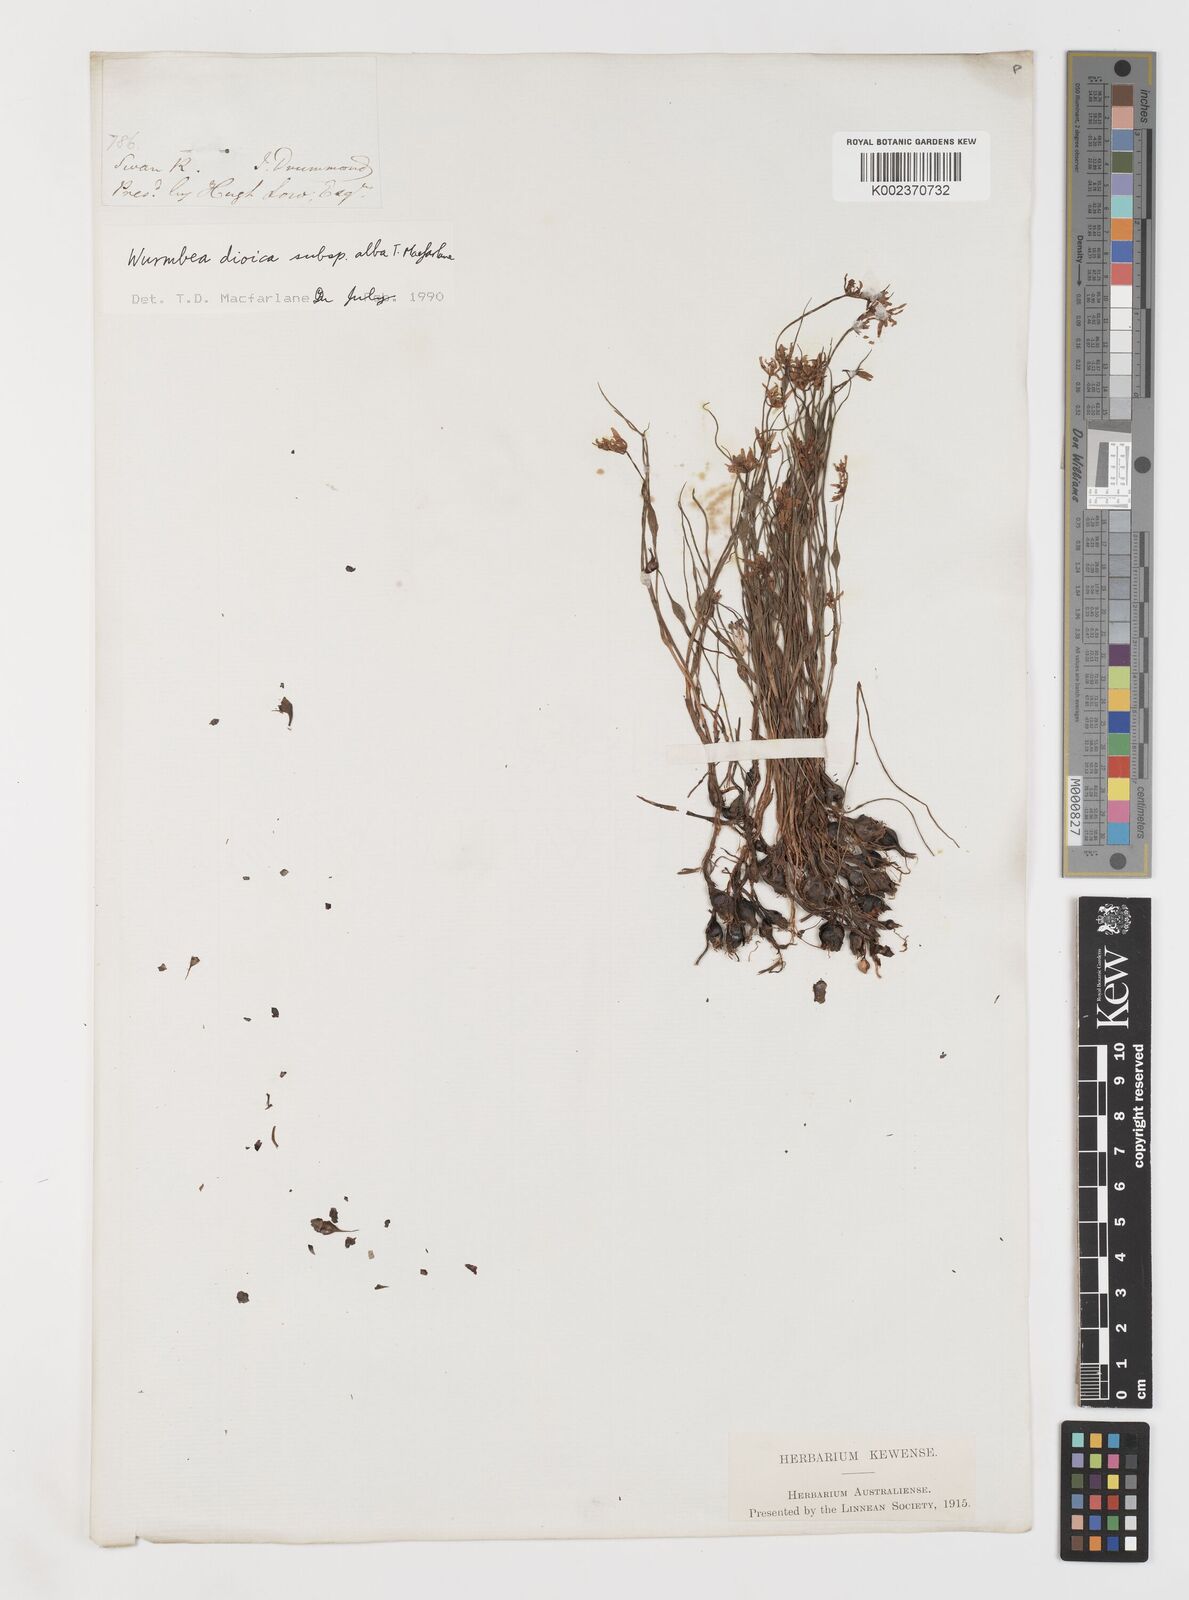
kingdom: Plantae
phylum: Tracheophyta
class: Liliopsida
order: Liliales
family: Colchicaceae
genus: Wurmbea
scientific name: Wurmbea dioica
